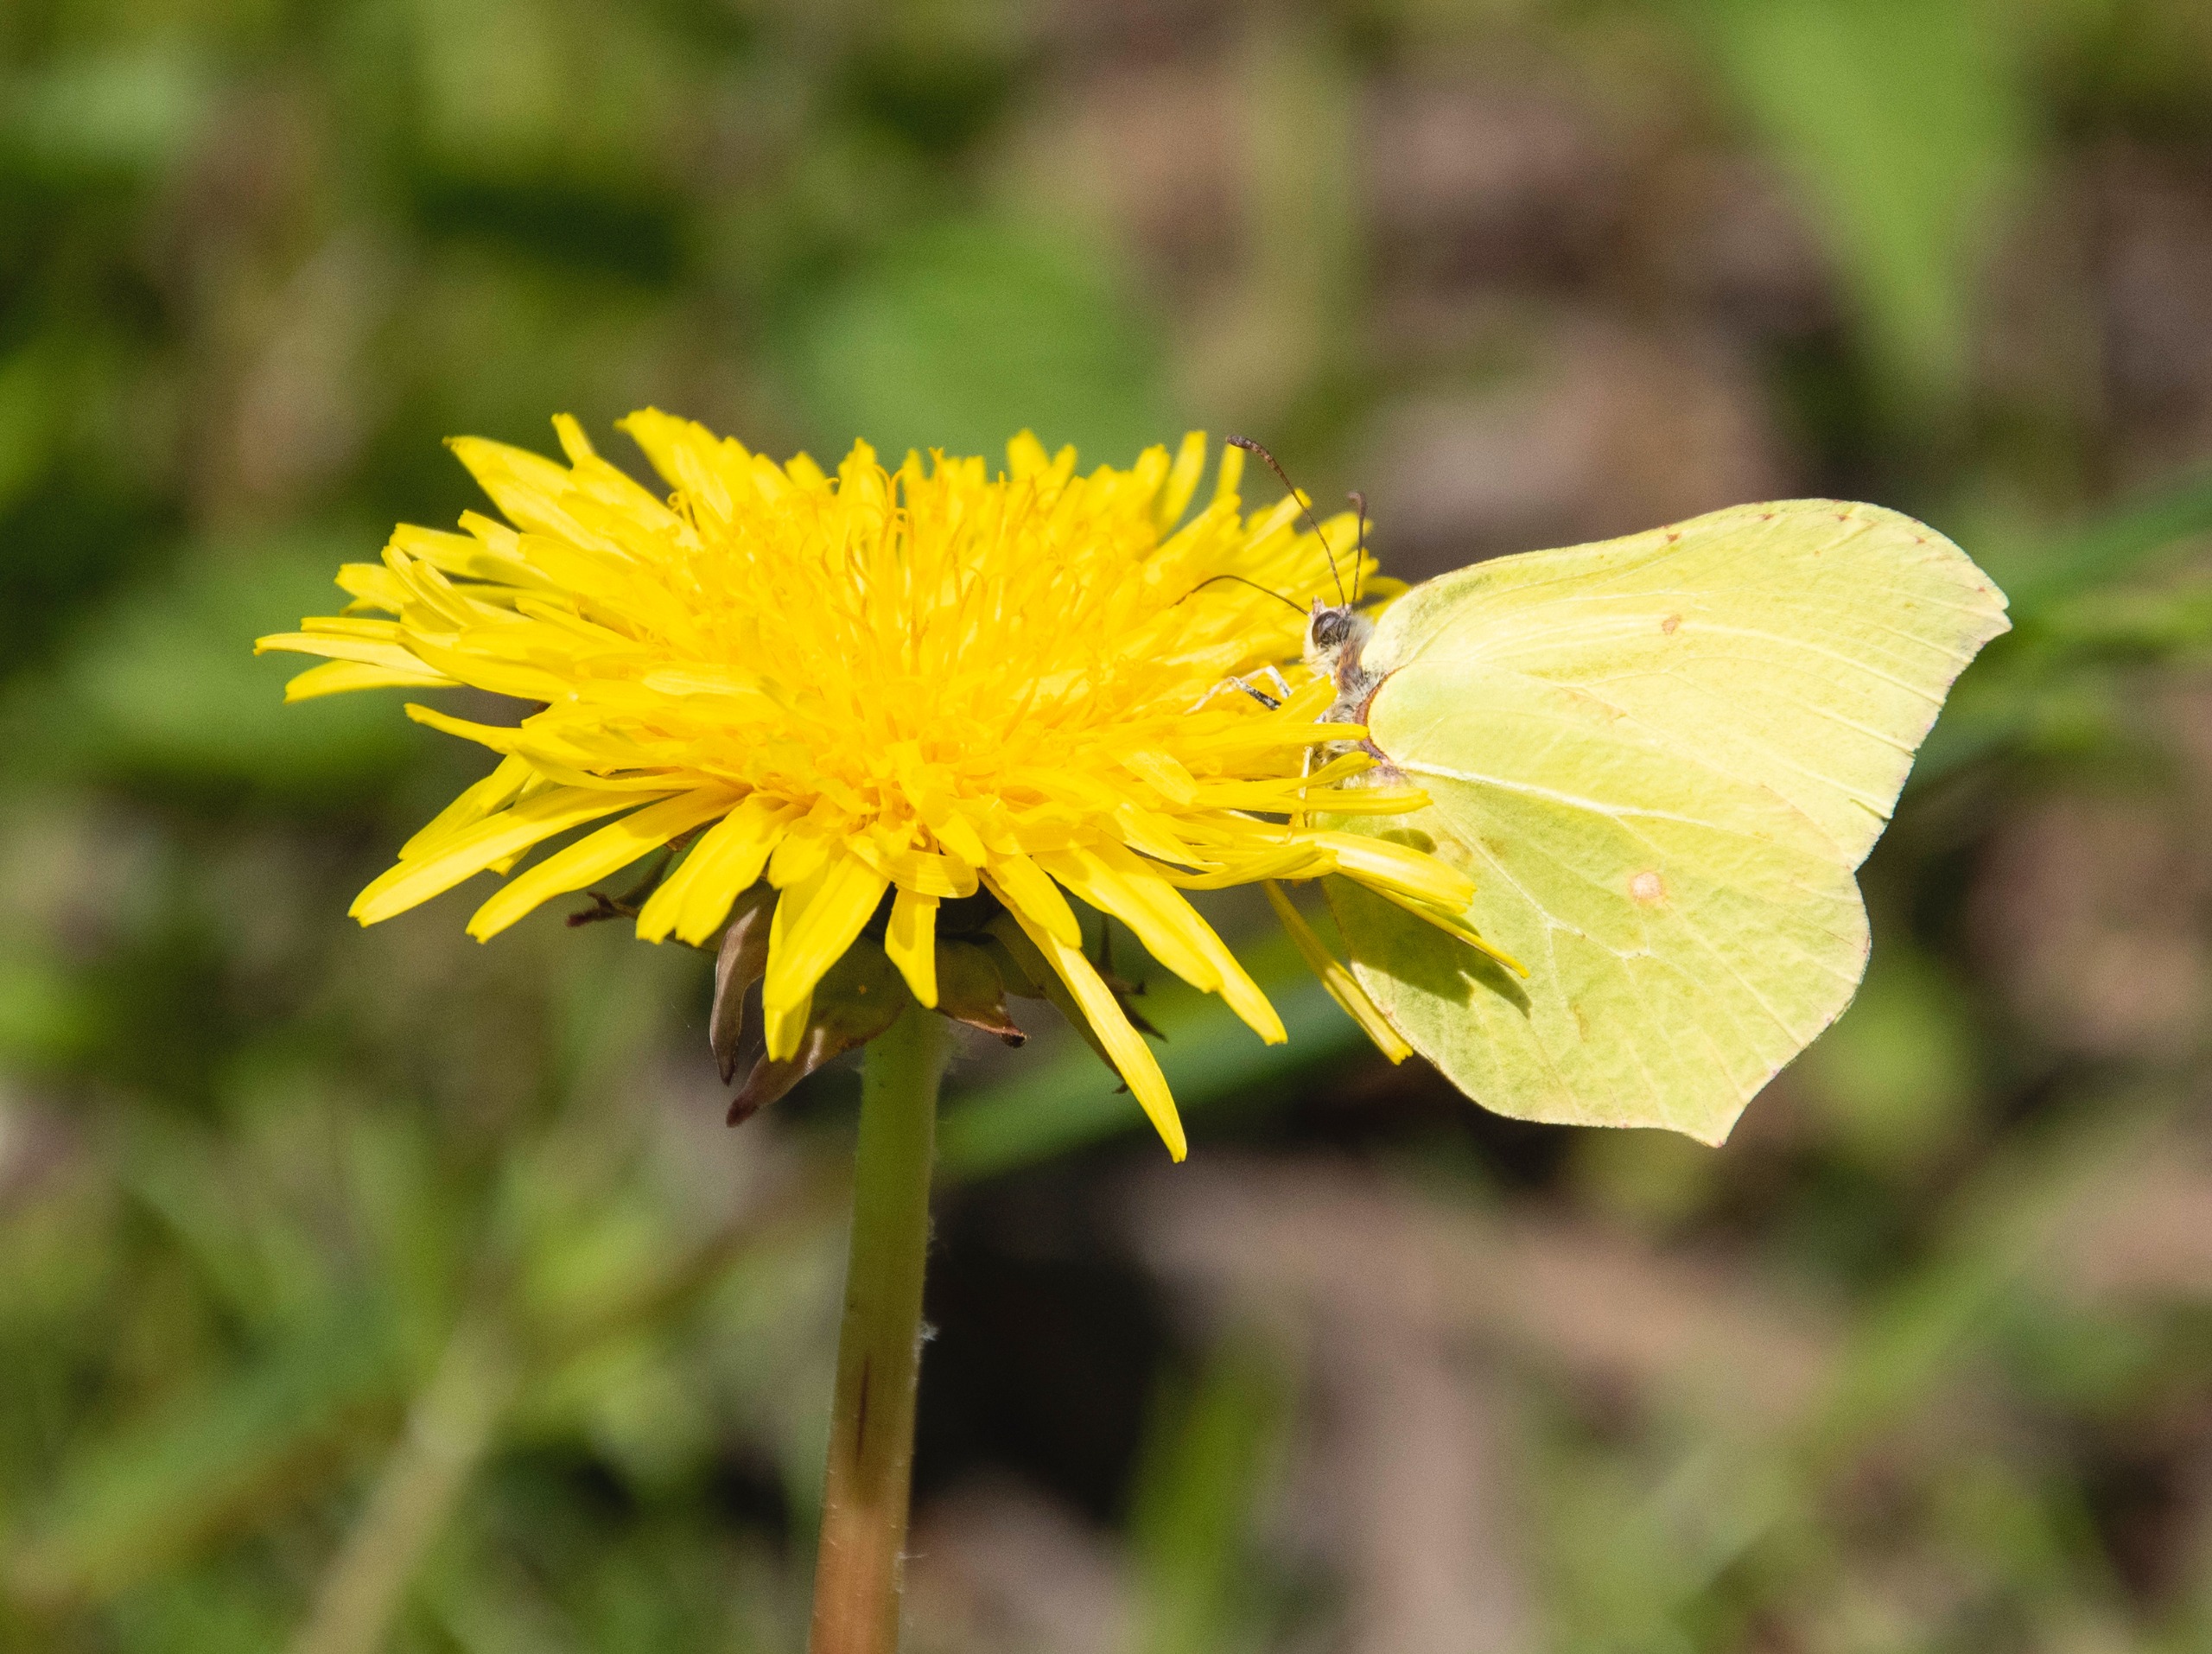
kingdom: Animalia
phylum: Arthropoda
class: Insecta
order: Lepidoptera
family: Pieridae
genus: Gonepteryx
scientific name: Gonepteryx rhamni
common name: Citronsommerfugl
